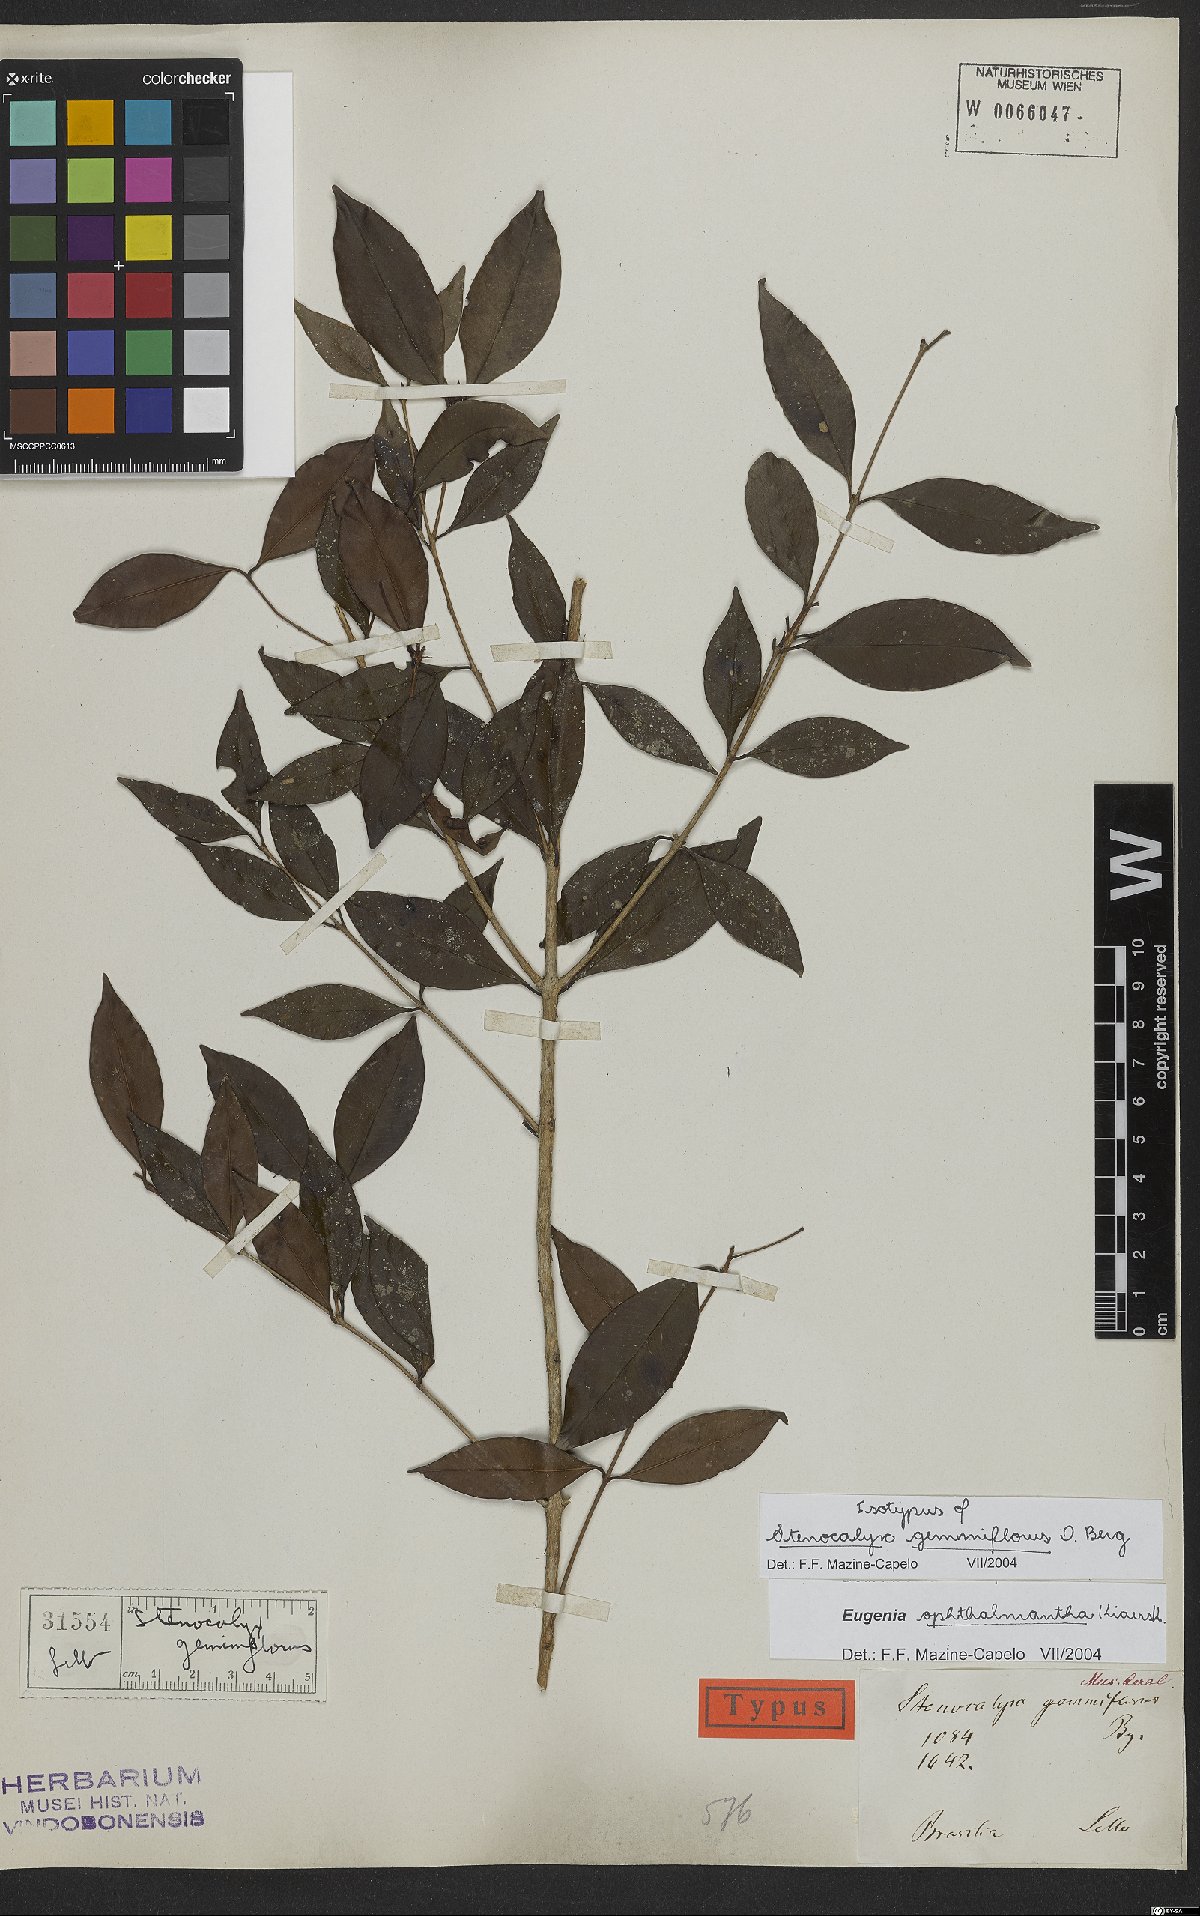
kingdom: Plantae
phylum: Tracheophyta
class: Magnoliopsida
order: Myrtales
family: Myrtaceae
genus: Eugenia
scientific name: Eugenia ophthalmantha
